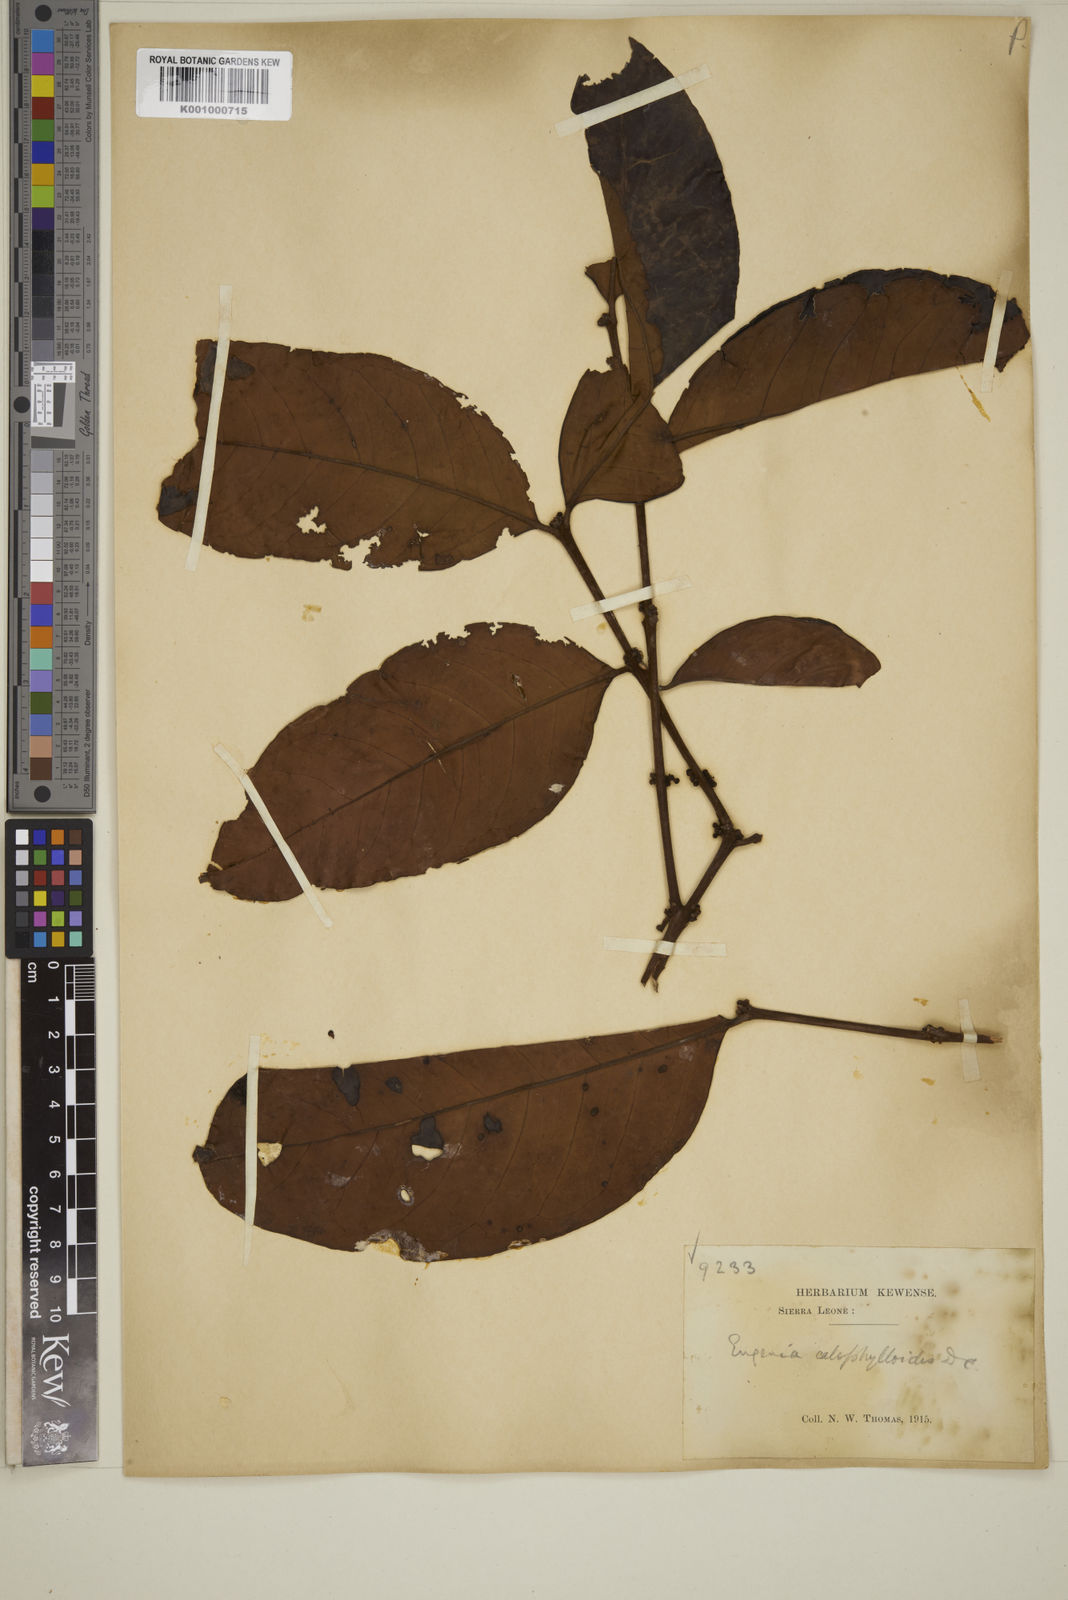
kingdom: Plantae
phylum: Tracheophyta
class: Magnoliopsida
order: Myrtales
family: Myrtaceae
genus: Eugenia
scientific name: Eugenia calophylloides
